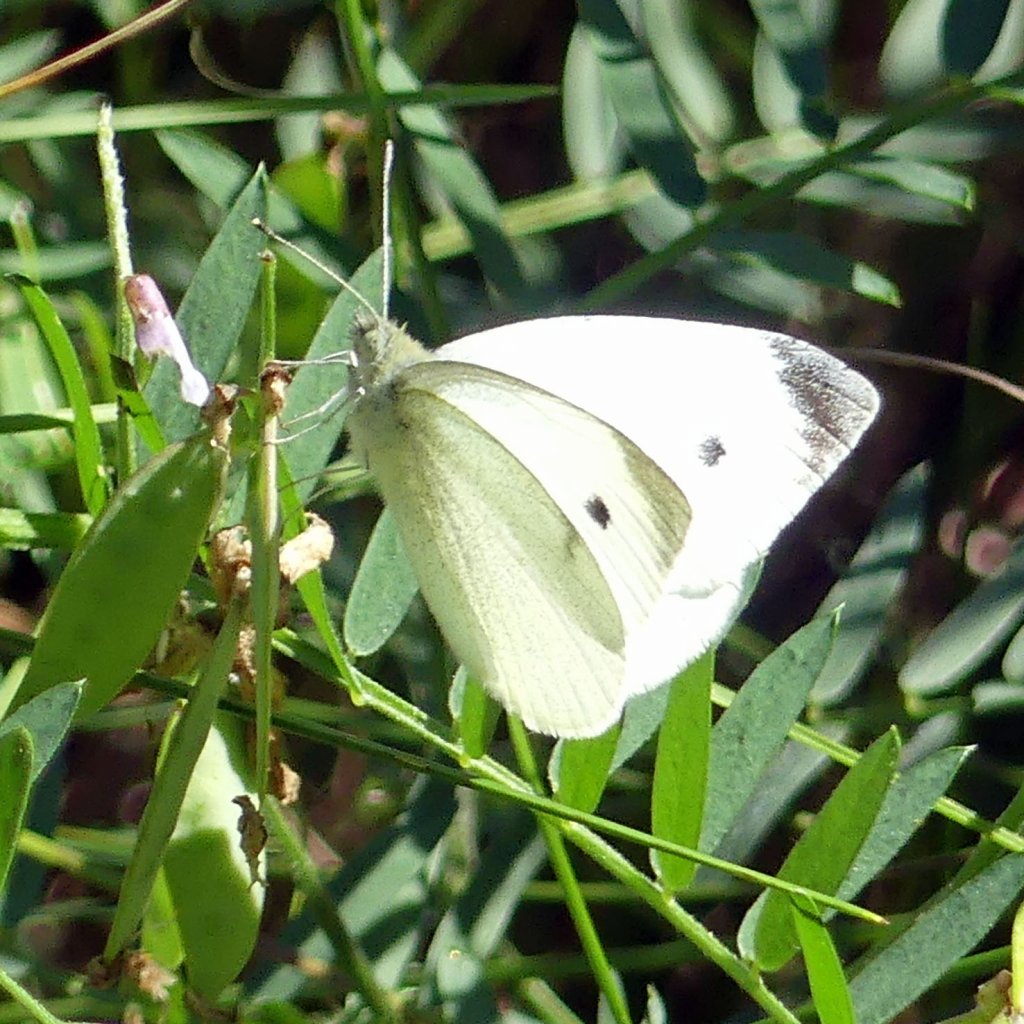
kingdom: Animalia
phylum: Arthropoda
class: Insecta
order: Lepidoptera
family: Pieridae
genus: Pieris
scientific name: Pieris rapae
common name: Cabbage White
